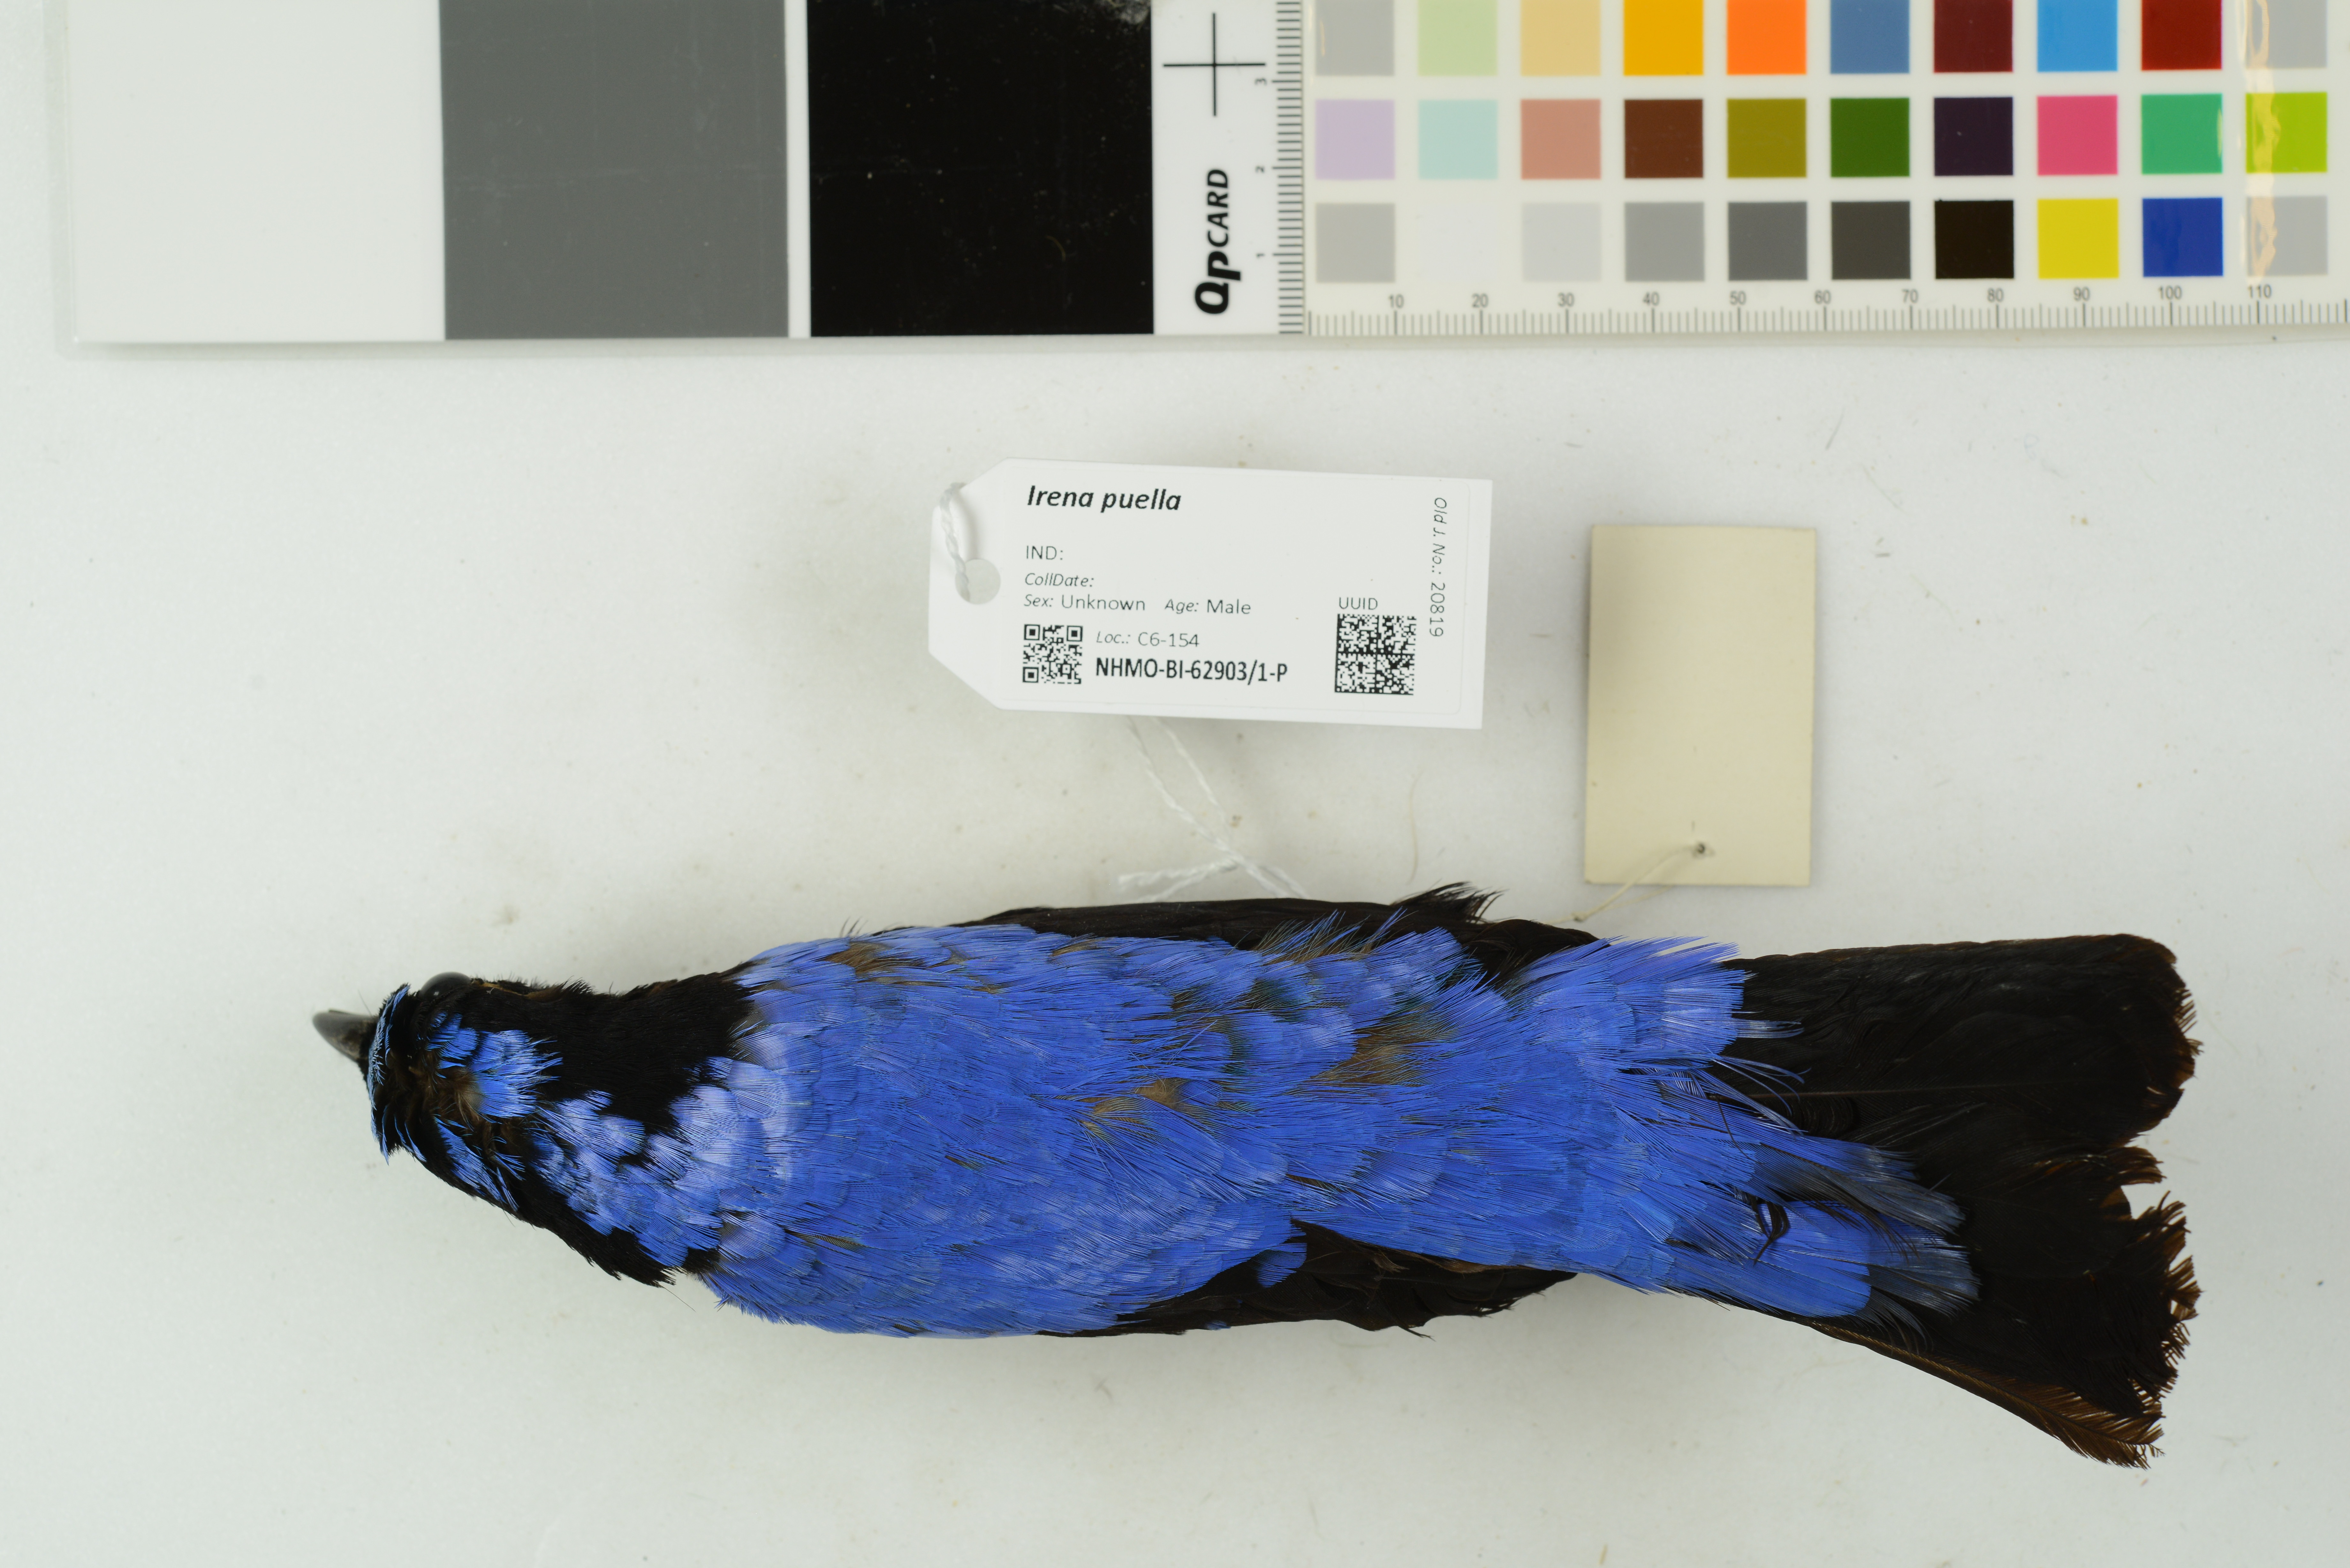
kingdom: Animalia
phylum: Chordata
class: Aves
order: Passeriformes
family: Irenidae
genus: Irena
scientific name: Irena puella
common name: Asian fairy-bluebird
